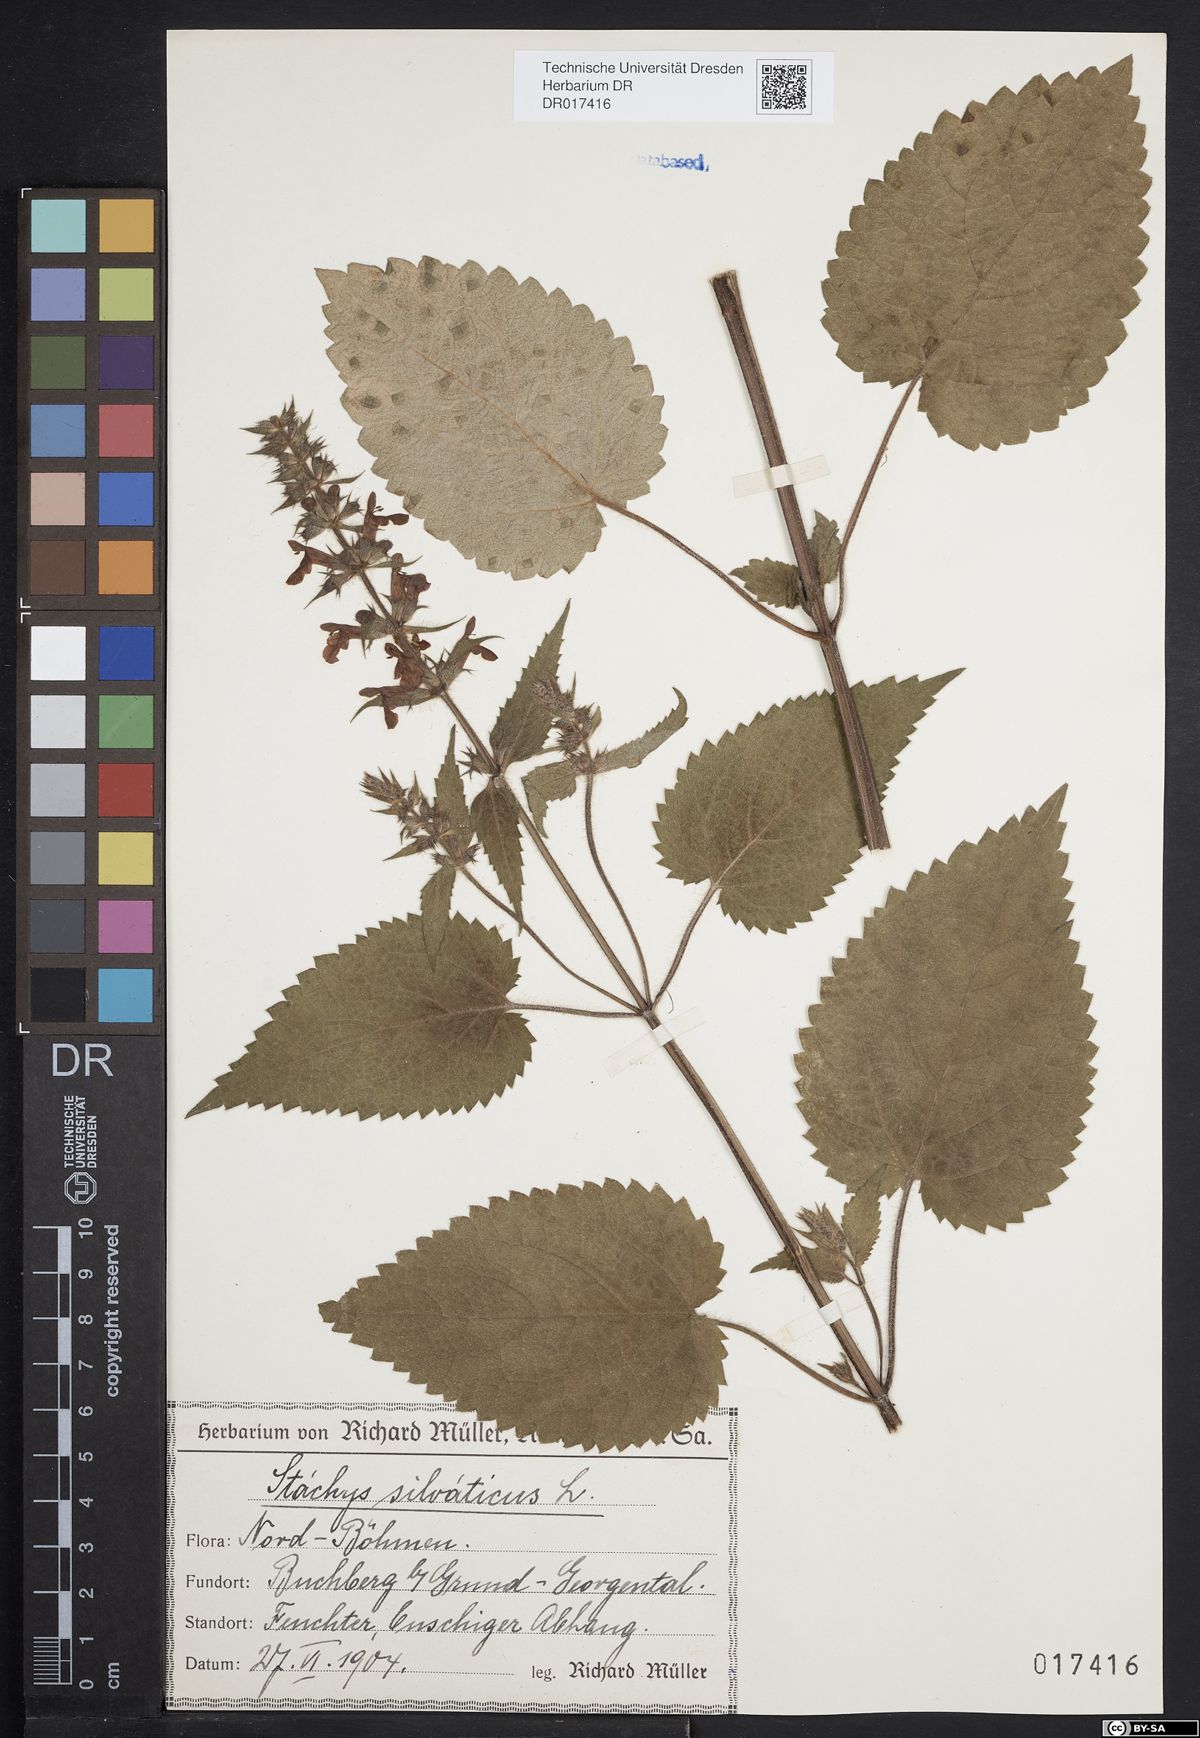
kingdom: Plantae
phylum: Tracheophyta
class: Magnoliopsida
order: Lamiales
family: Lamiaceae
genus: Stachys
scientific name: Stachys sylvatica
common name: Hedge woundwort
